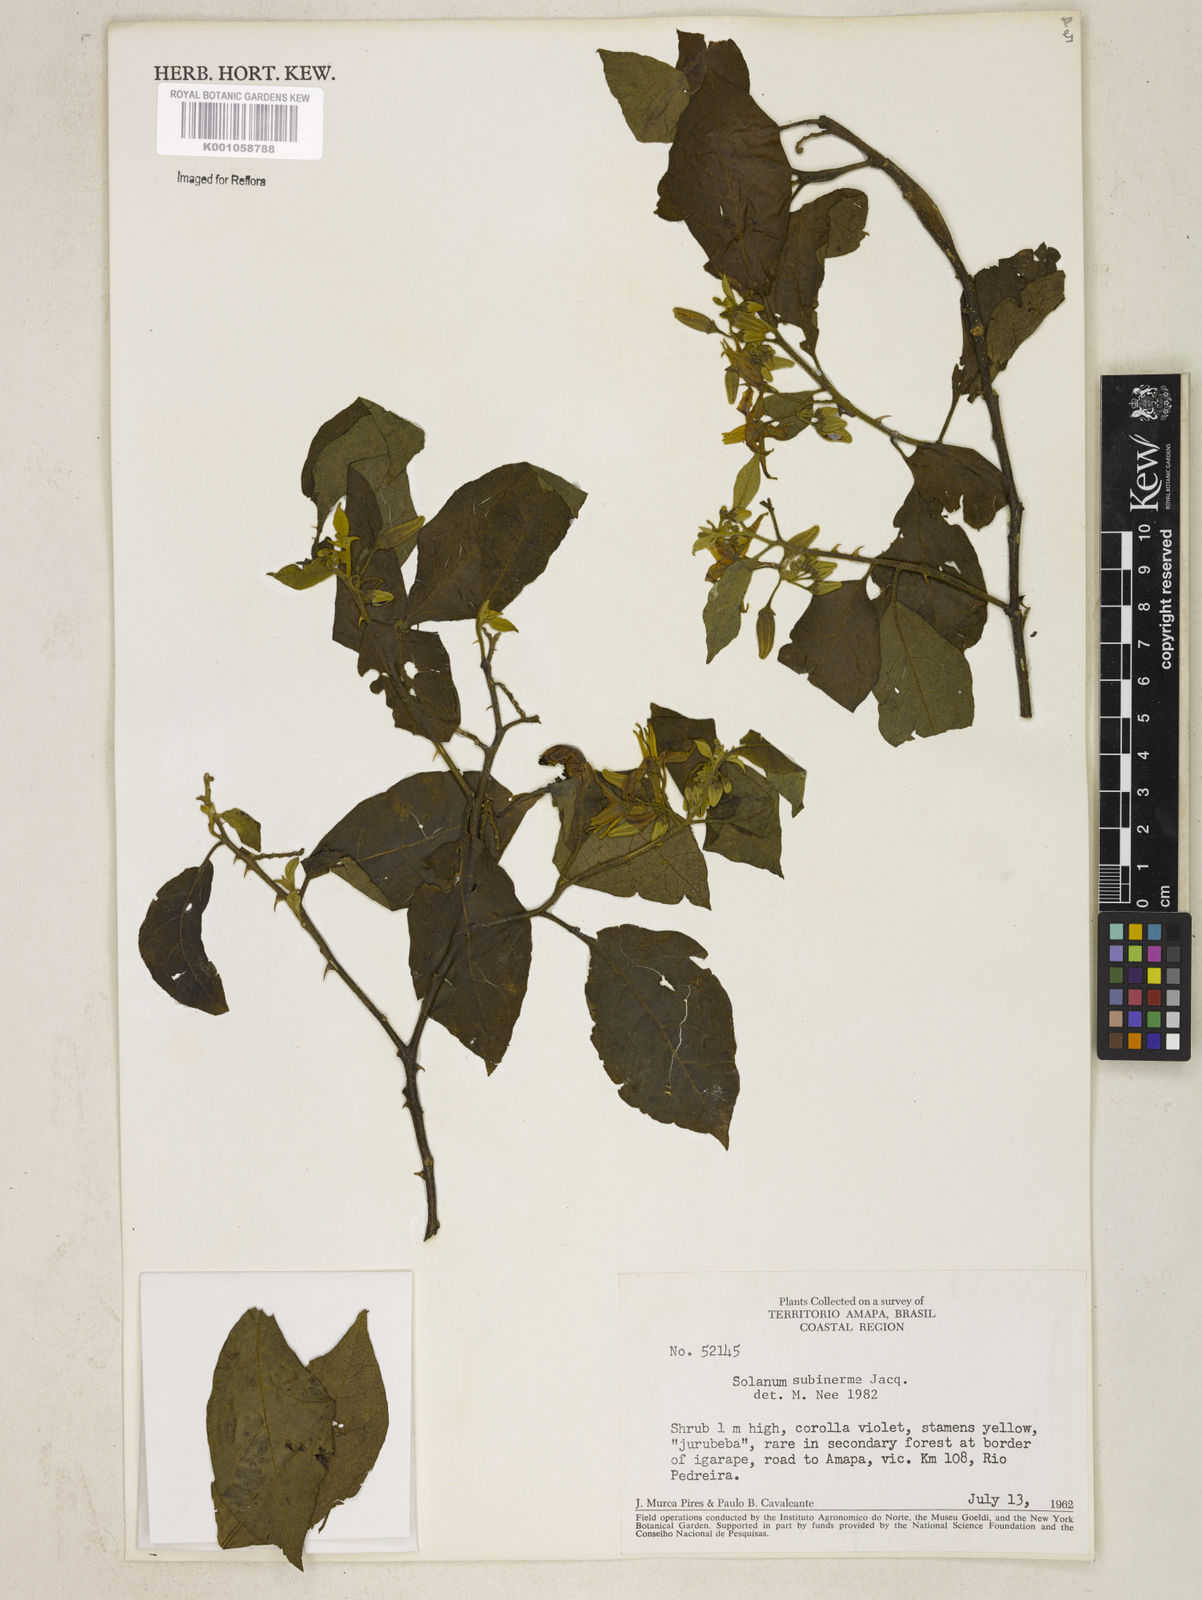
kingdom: Plantae
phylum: Tracheophyta
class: Magnoliopsida
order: Solanales
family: Solanaceae
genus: Solanum
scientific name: Solanum subinerme
